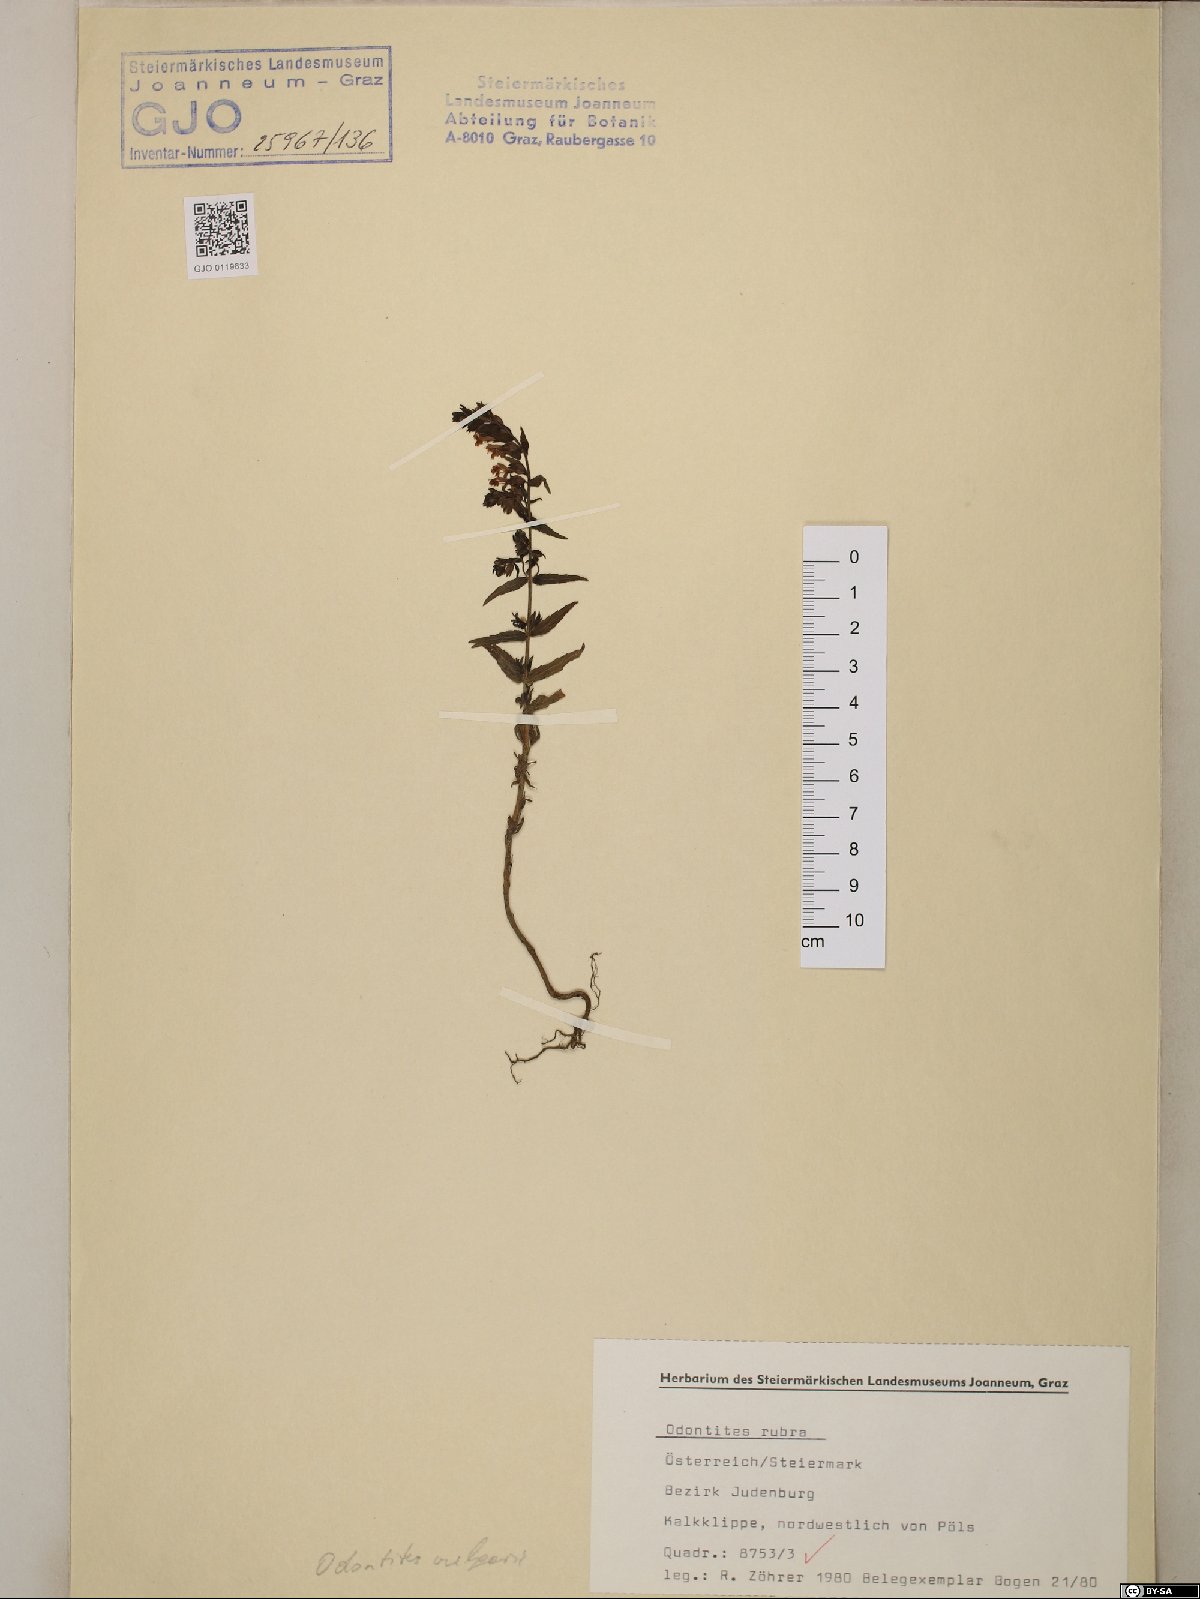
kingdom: Plantae
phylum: Tracheophyta
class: Magnoliopsida
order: Lamiales
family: Orobanchaceae
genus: Odontites
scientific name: Odontites vulgaris
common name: Broomrape
